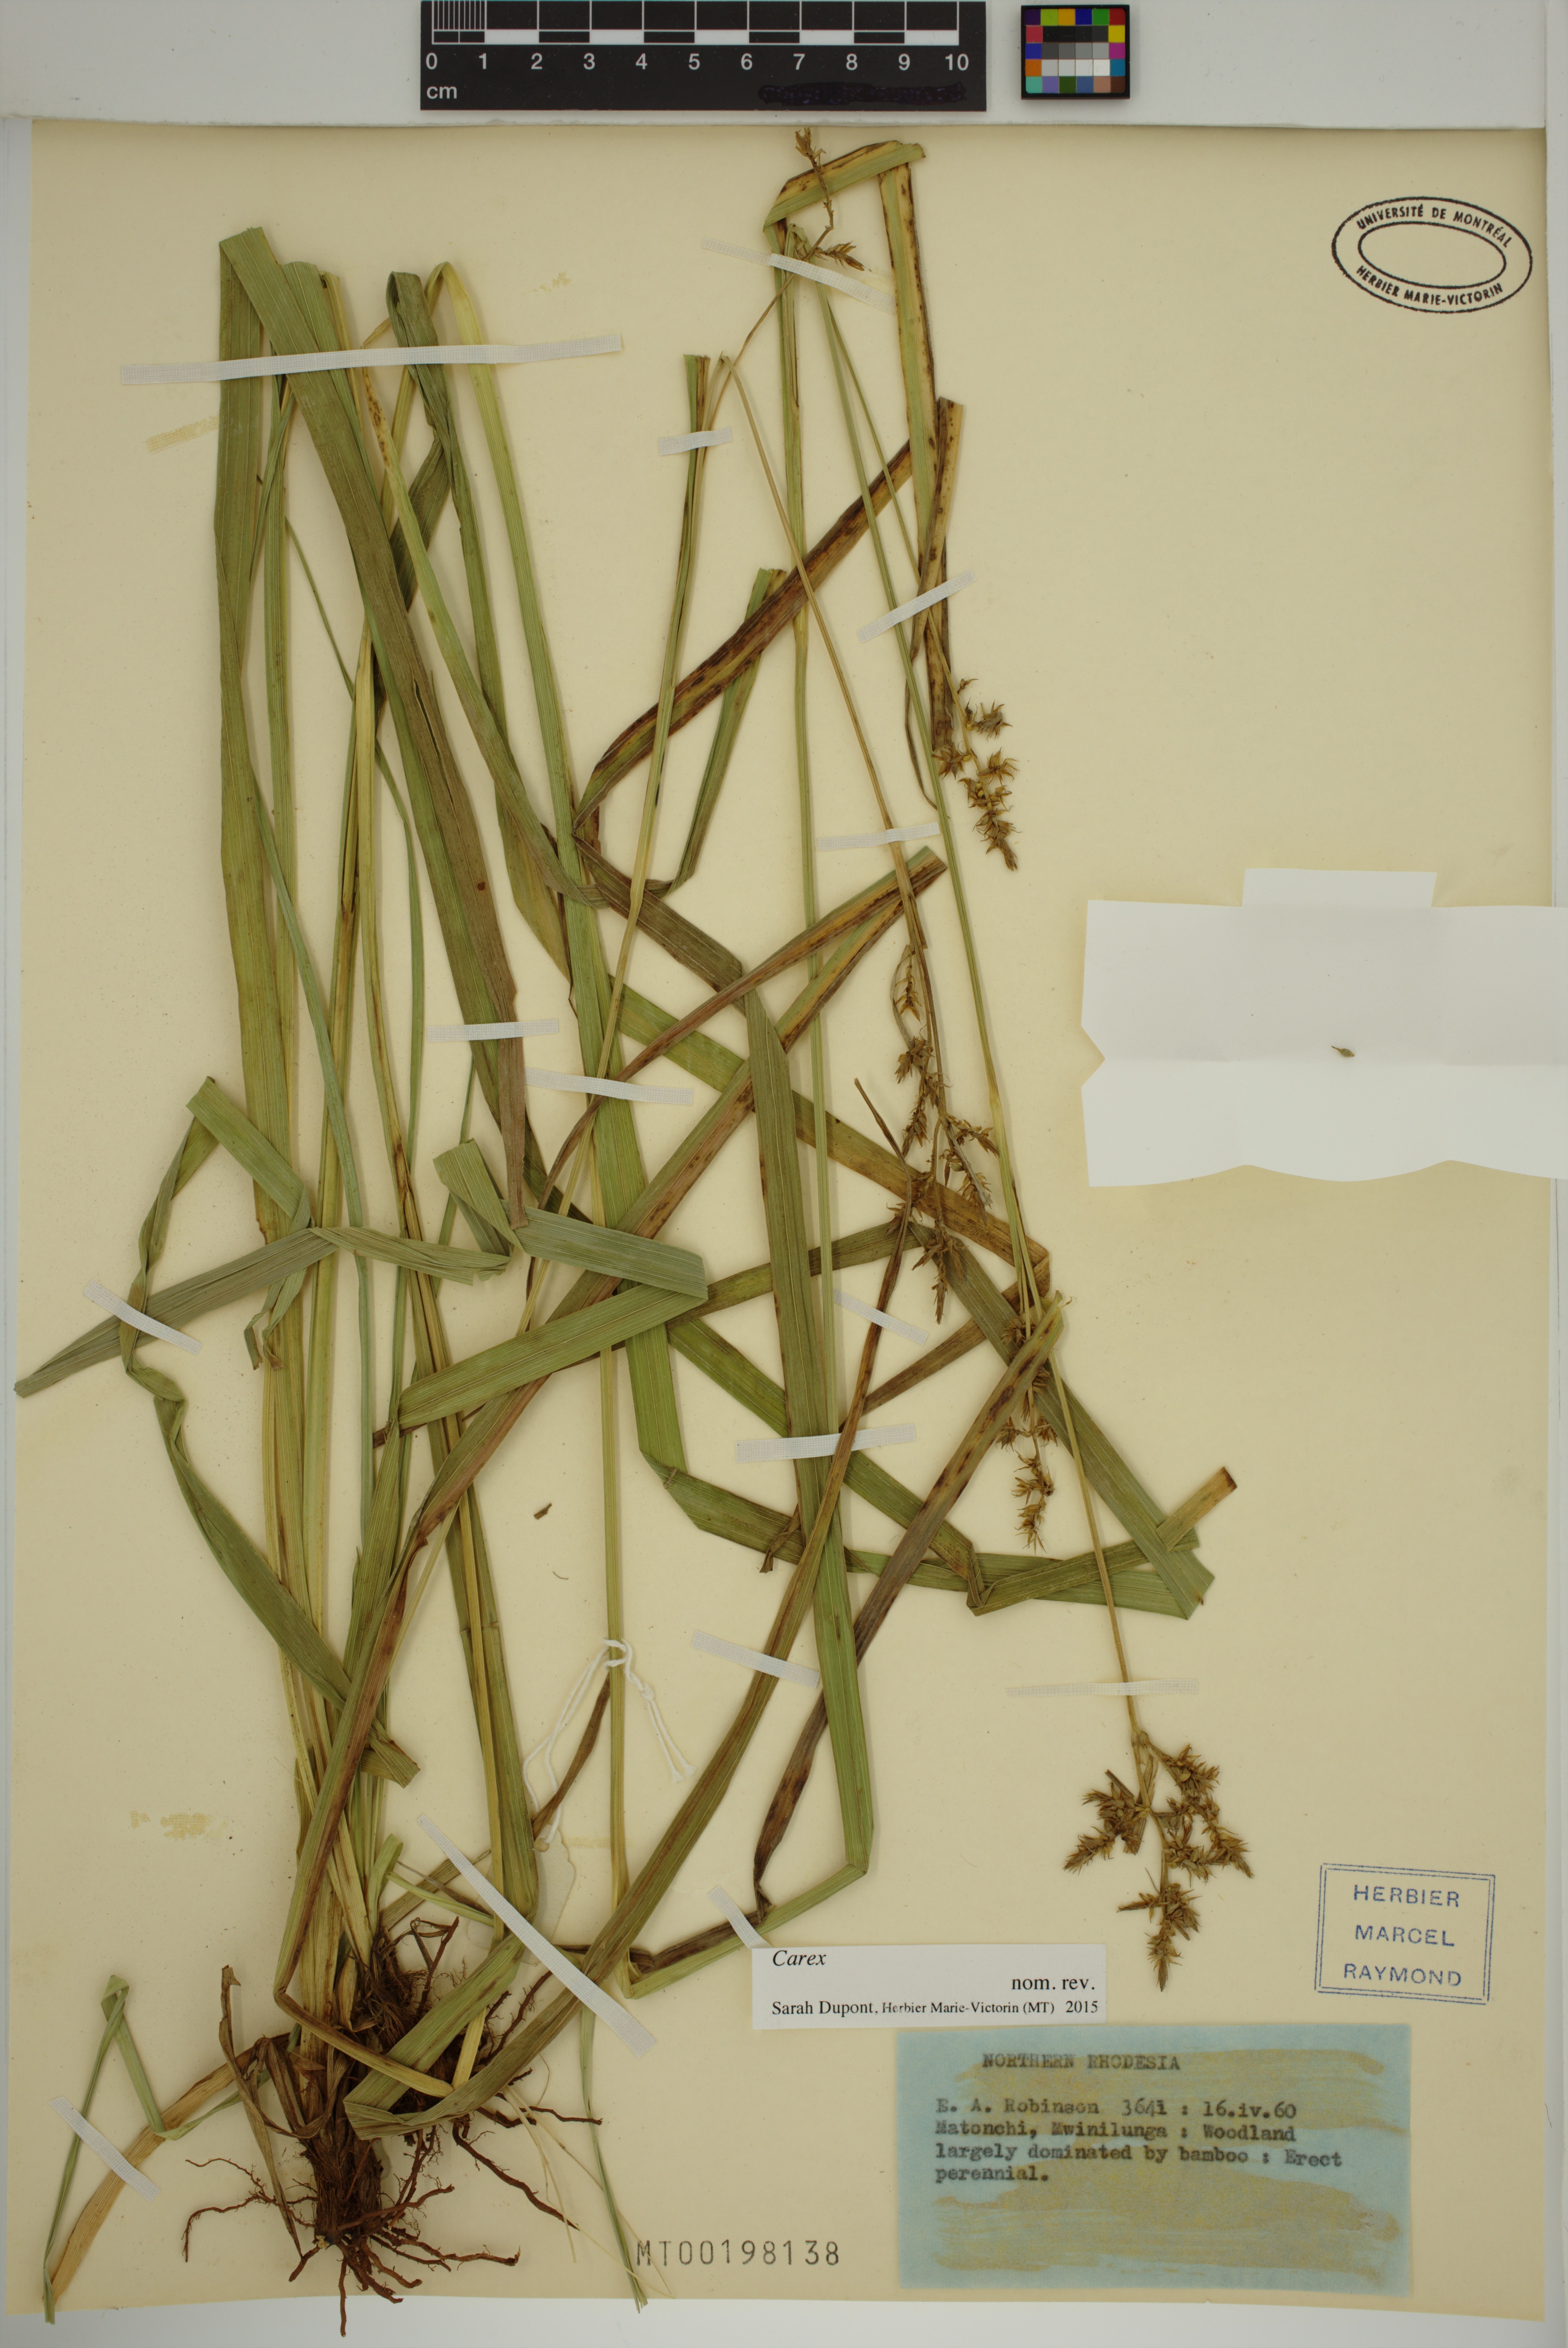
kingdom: Plantae
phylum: Tracheophyta
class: Liliopsida
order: Poales
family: Cyperaceae
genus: Carex
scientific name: Carex
